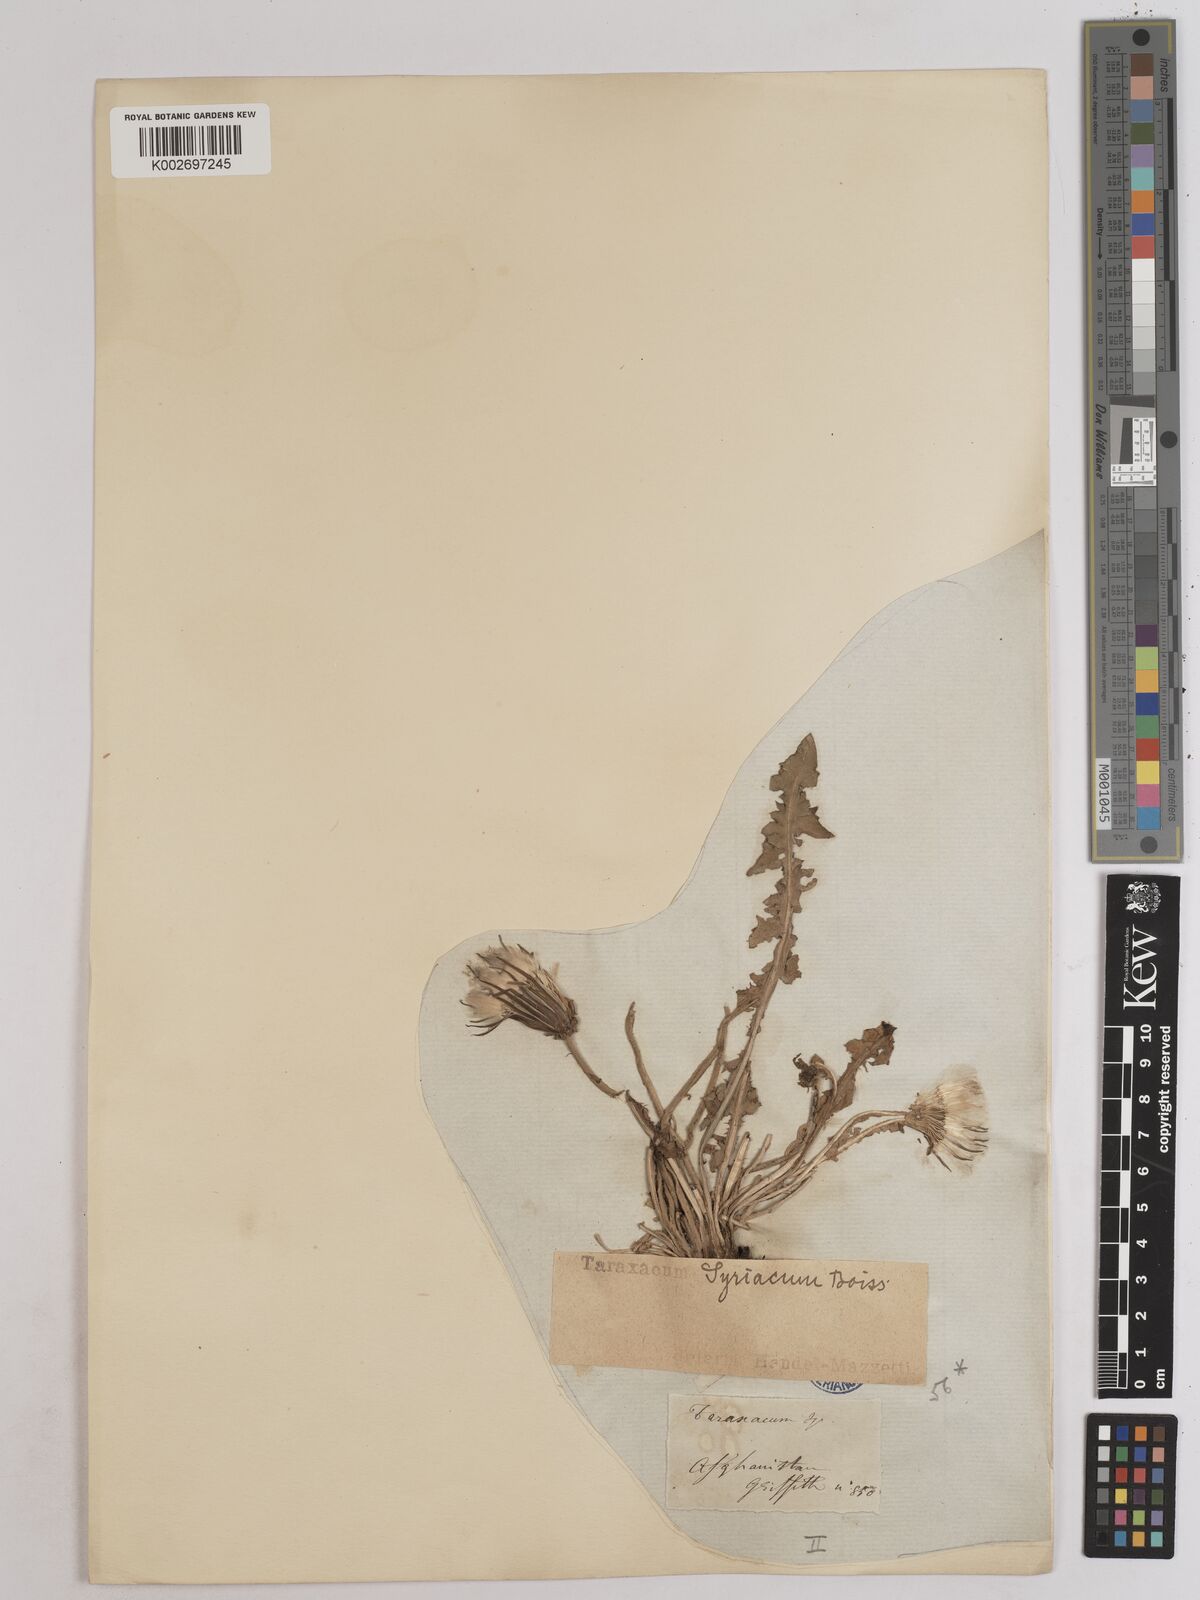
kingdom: Plantae
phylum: Tracheophyta
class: Magnoliopsida
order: Asterales
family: Asteraceae
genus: Taraxacum
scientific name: Taraxacum syriacum
